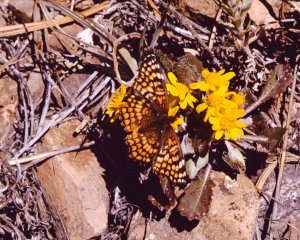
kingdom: Animalia
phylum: Arthropoda
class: Insecta
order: Lepidoptera
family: Nymphalidae
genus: Chlosyne
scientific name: Chlosyne acastus
